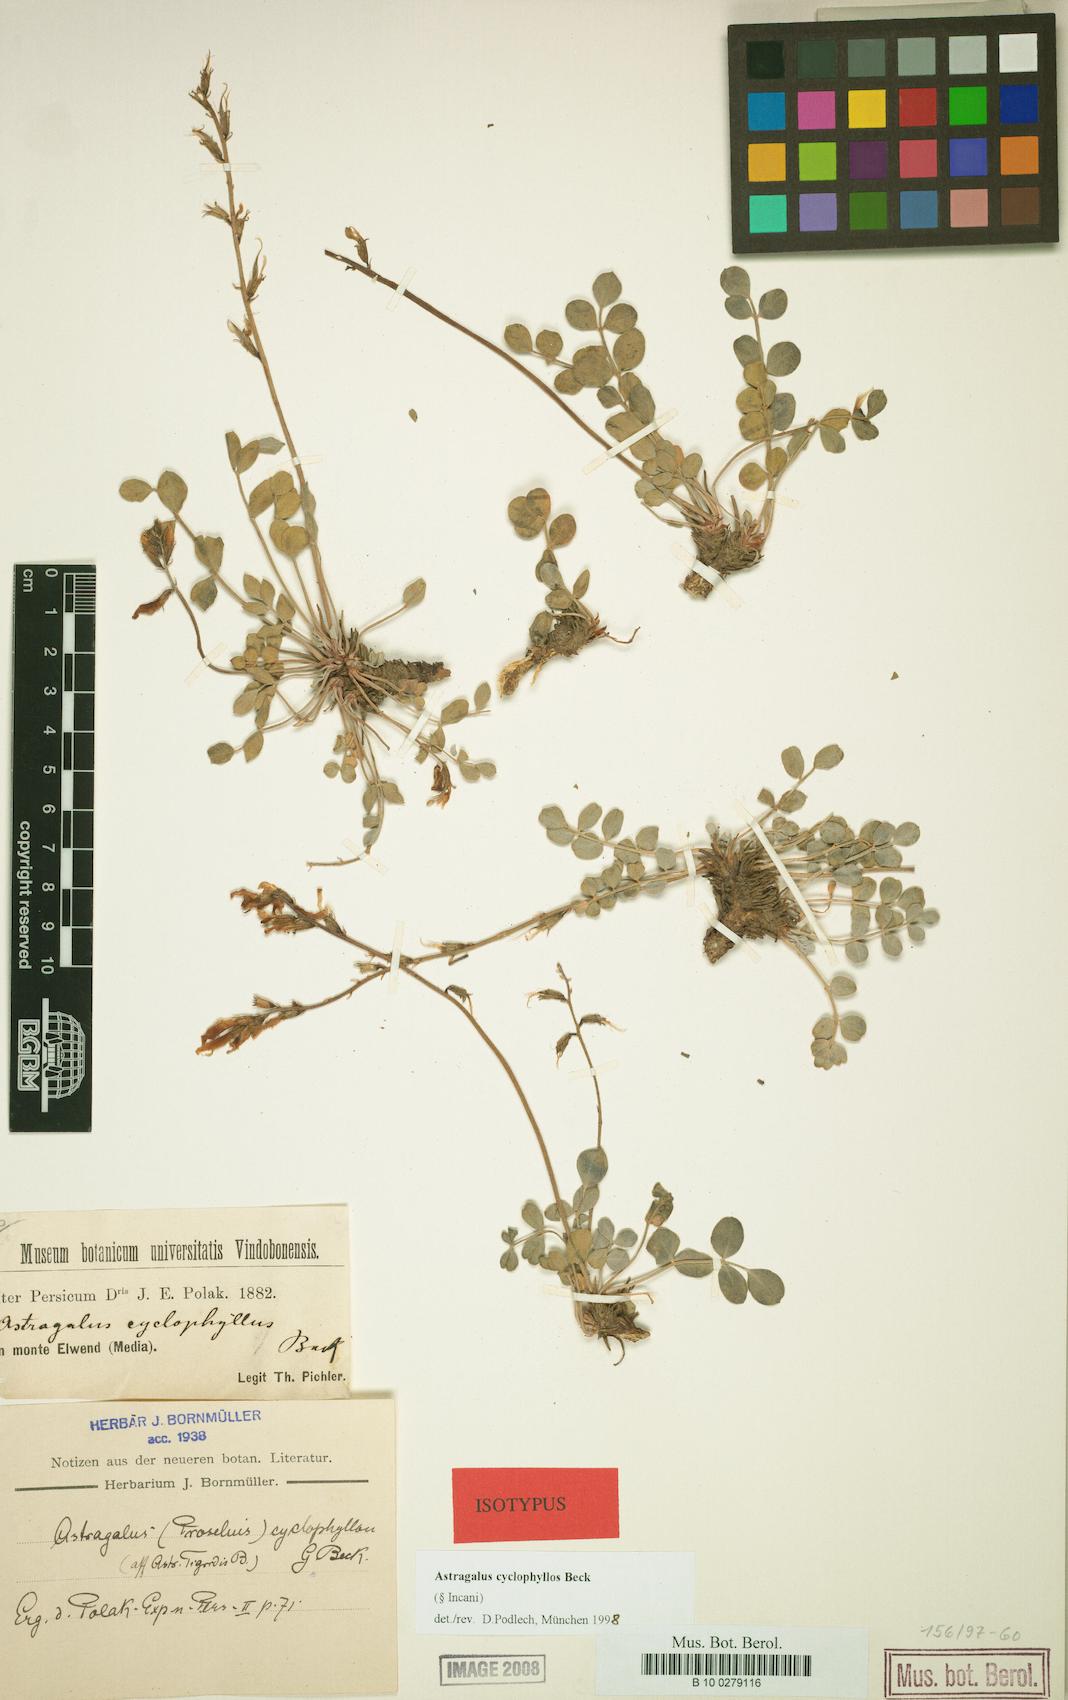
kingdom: Plantae
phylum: Tracheophyta
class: Magnoliopsida
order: Fabales
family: Fabaceae
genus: Astragalus
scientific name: Astragalus cyclophyllos
